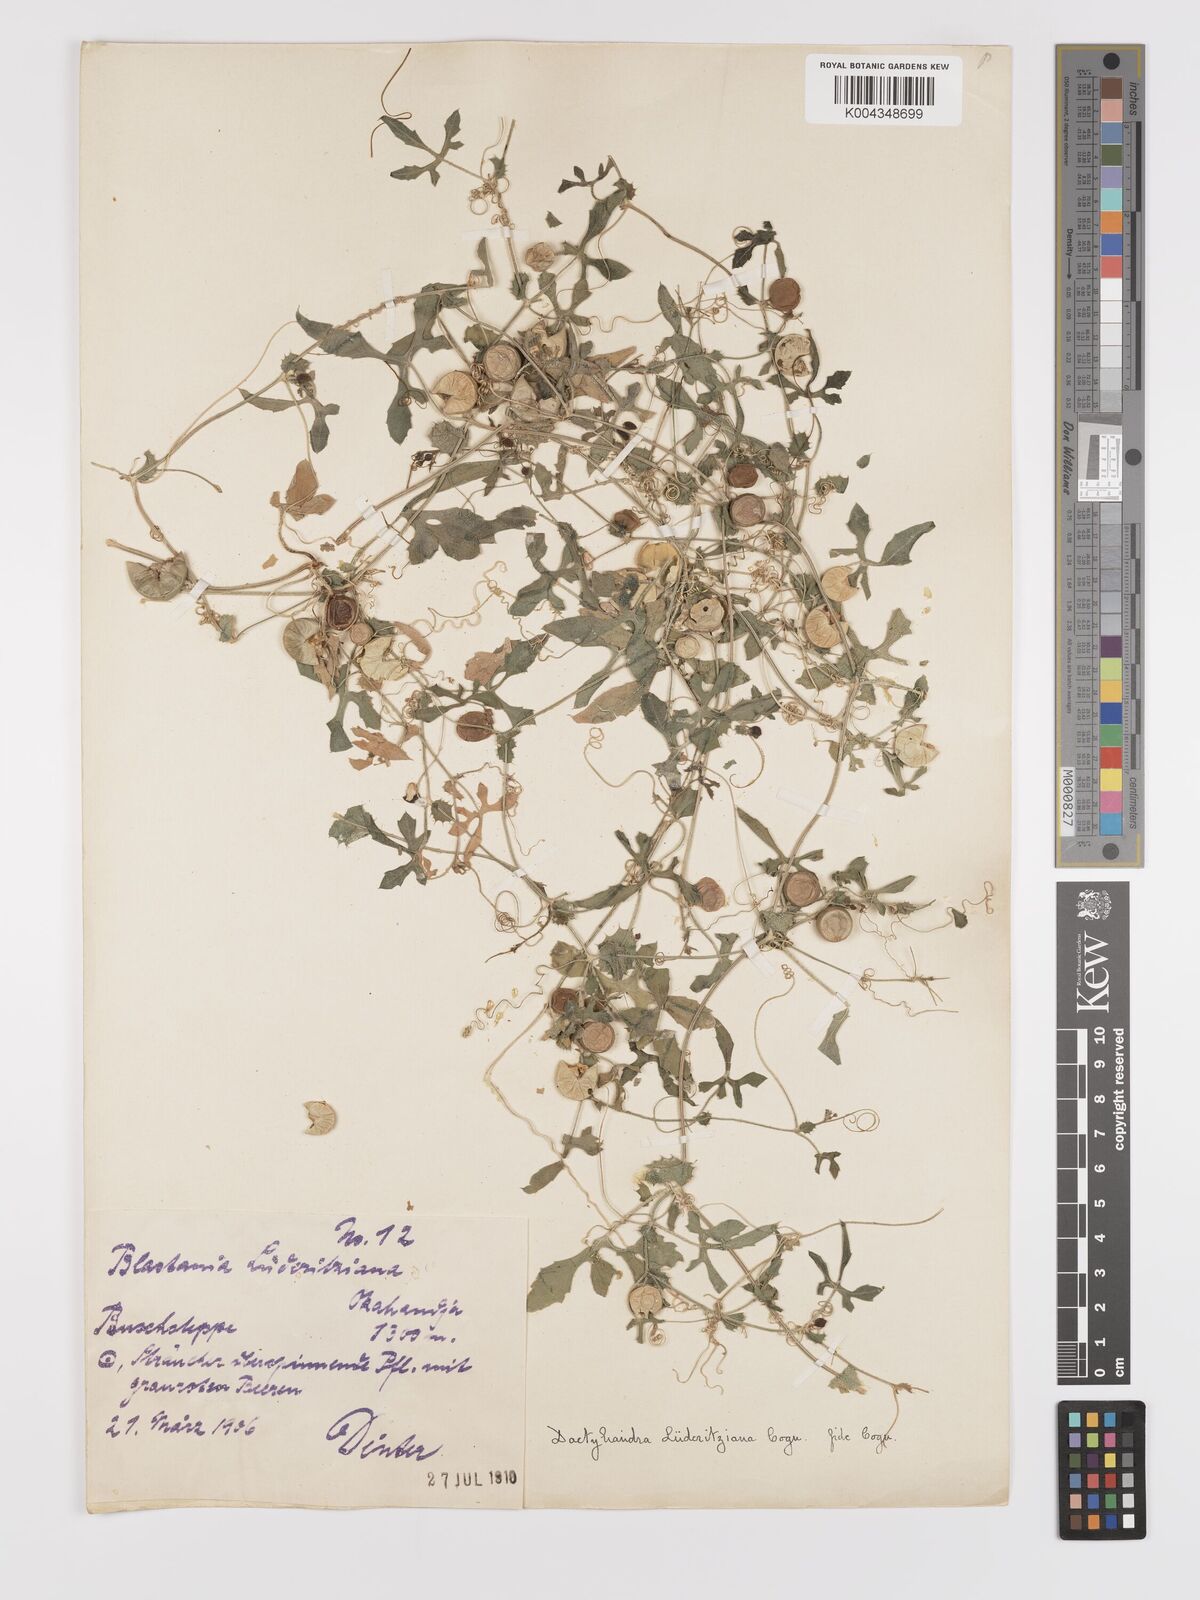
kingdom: Plantae
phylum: Tracheophyta
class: Magnoliopsida
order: Cucurbitales
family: Cucurbitaceae
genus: Dactyliandra
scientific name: Dactyliandra welwitschii
